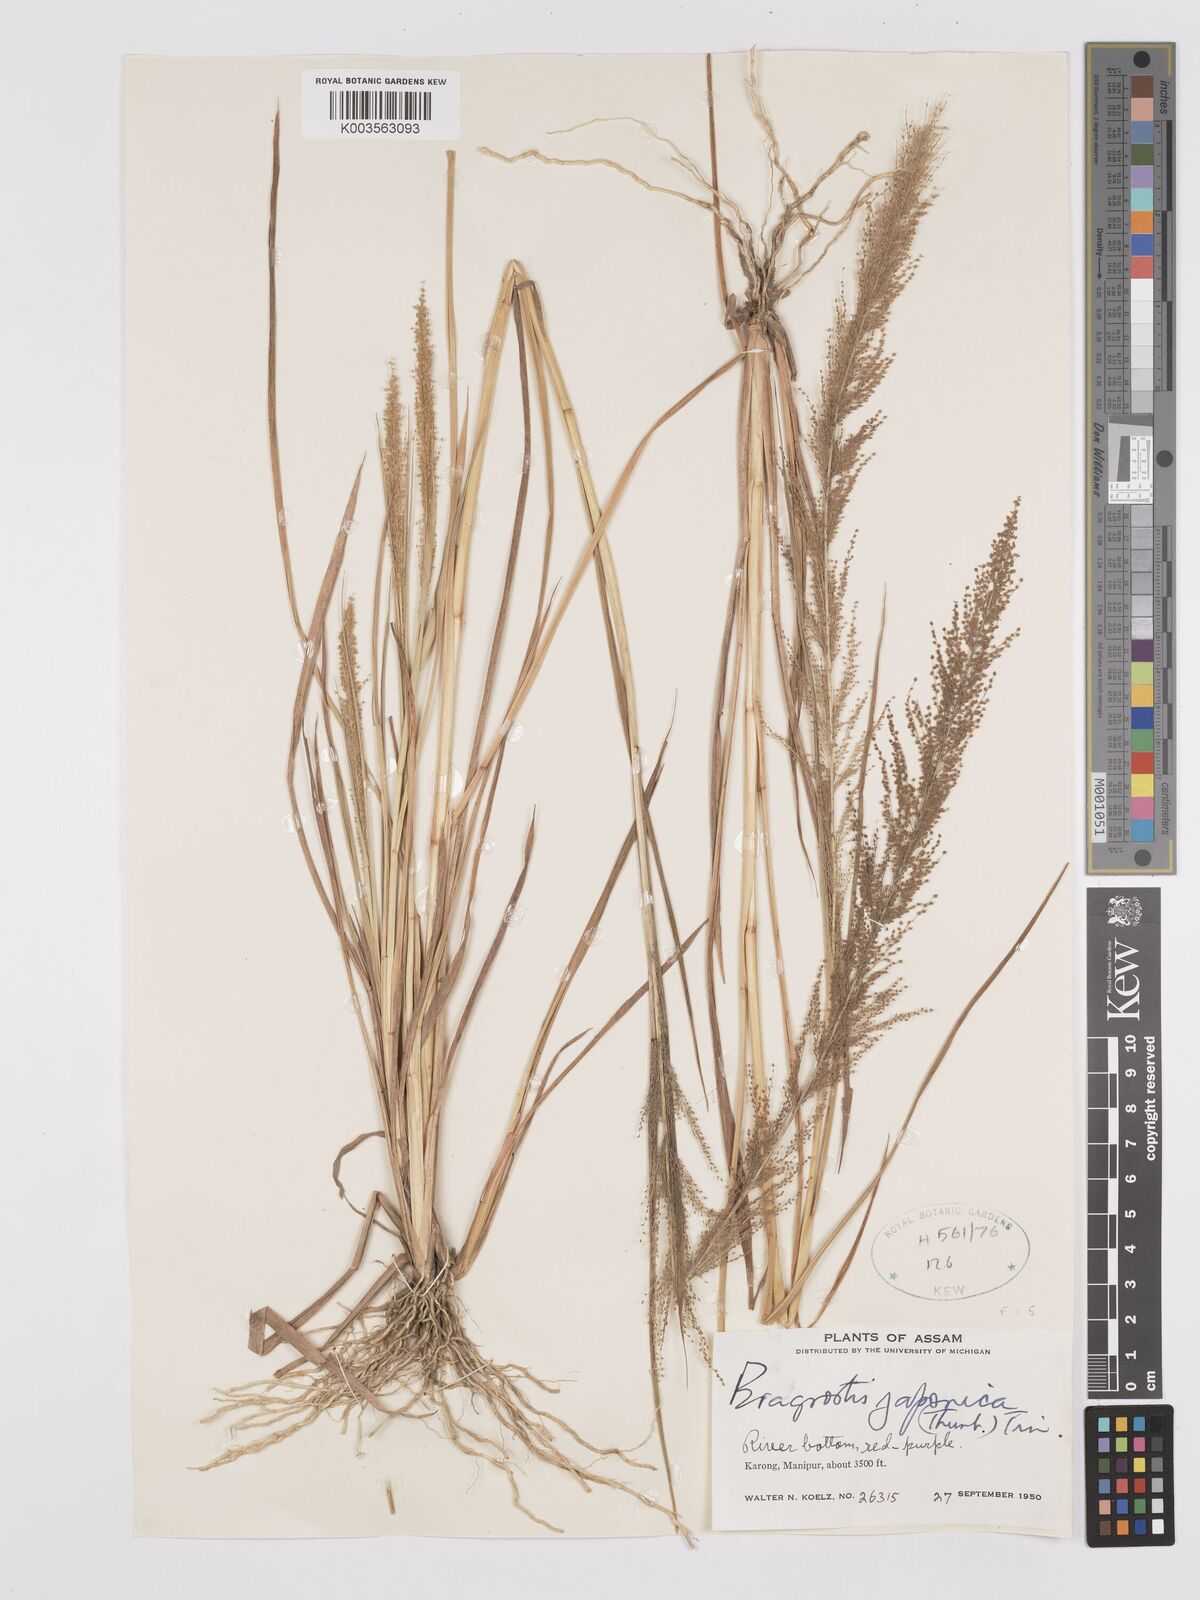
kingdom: Plantae
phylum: Tracheophyta
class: Liliopsida
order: Poales
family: Poaceae
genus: Eragrostis
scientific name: Eragrostis japonica
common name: Pond lovegrass
